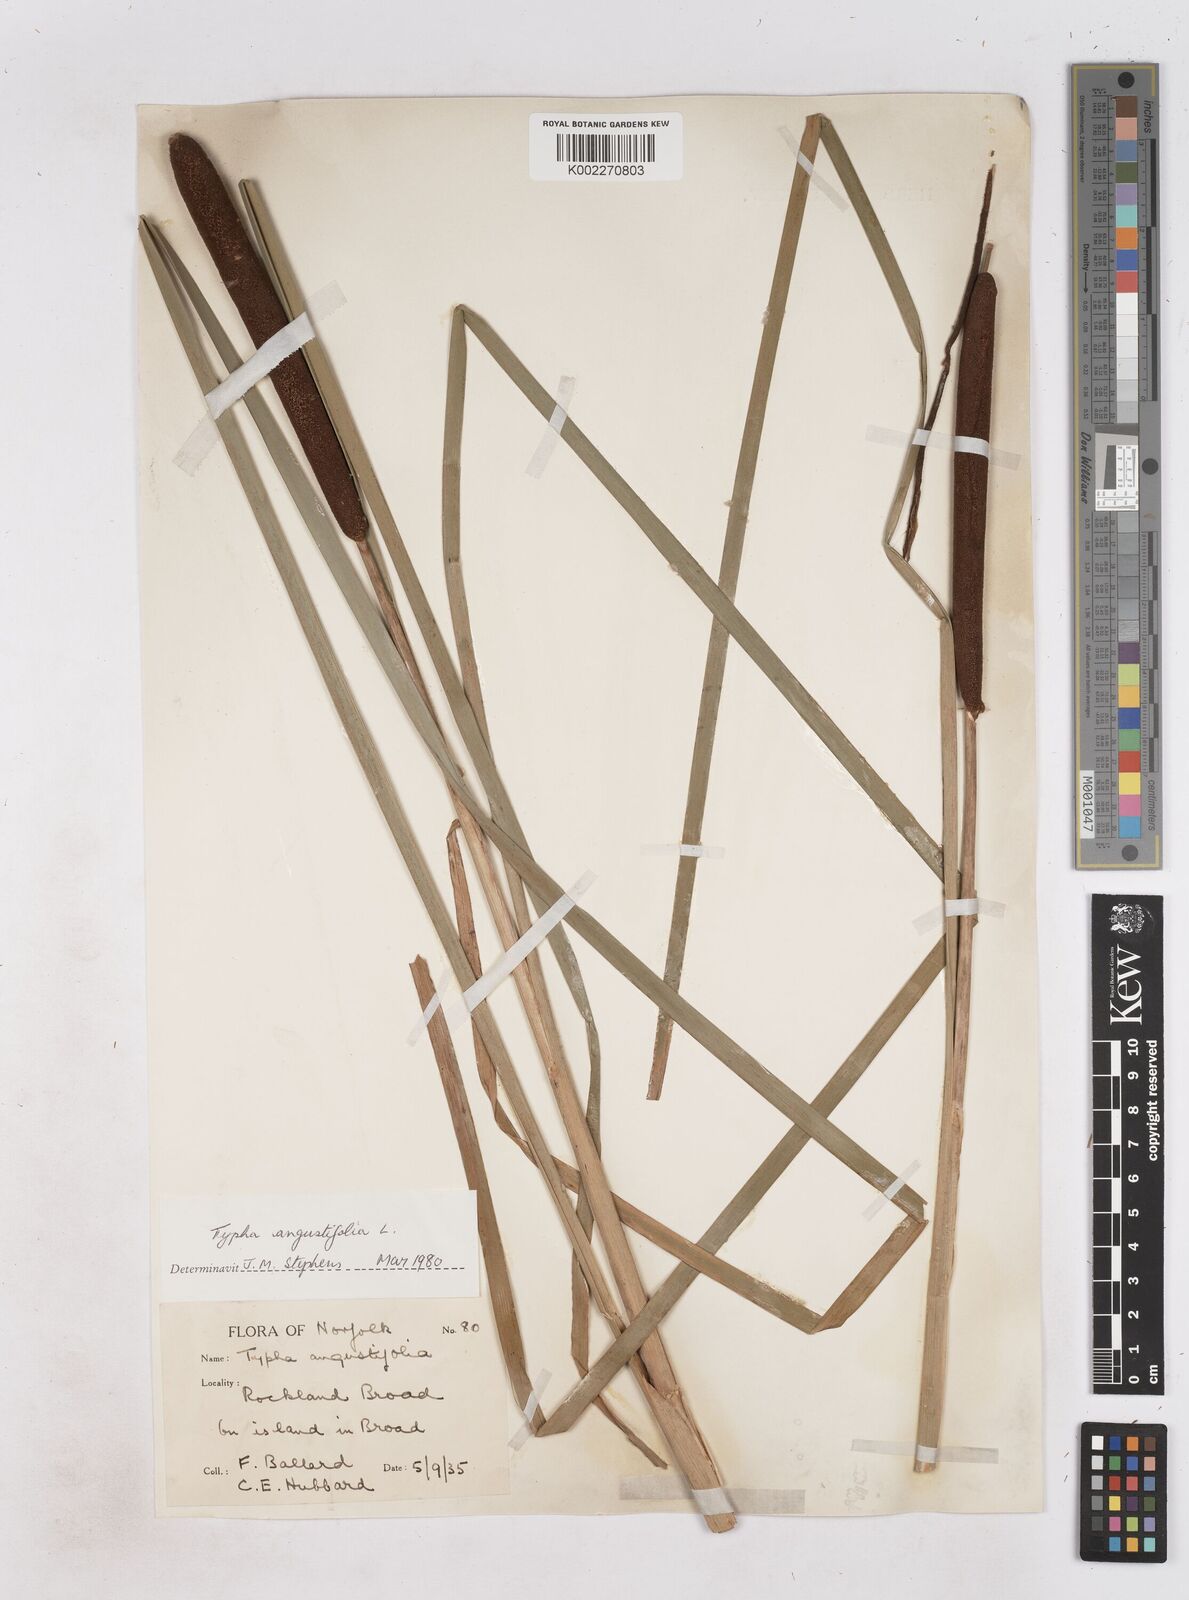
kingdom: Plantae
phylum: Tracheophyta
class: Liliopsida
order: Poales
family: Typhaceae
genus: Typha
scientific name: Typha angustifolia
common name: Lesser bulrush
